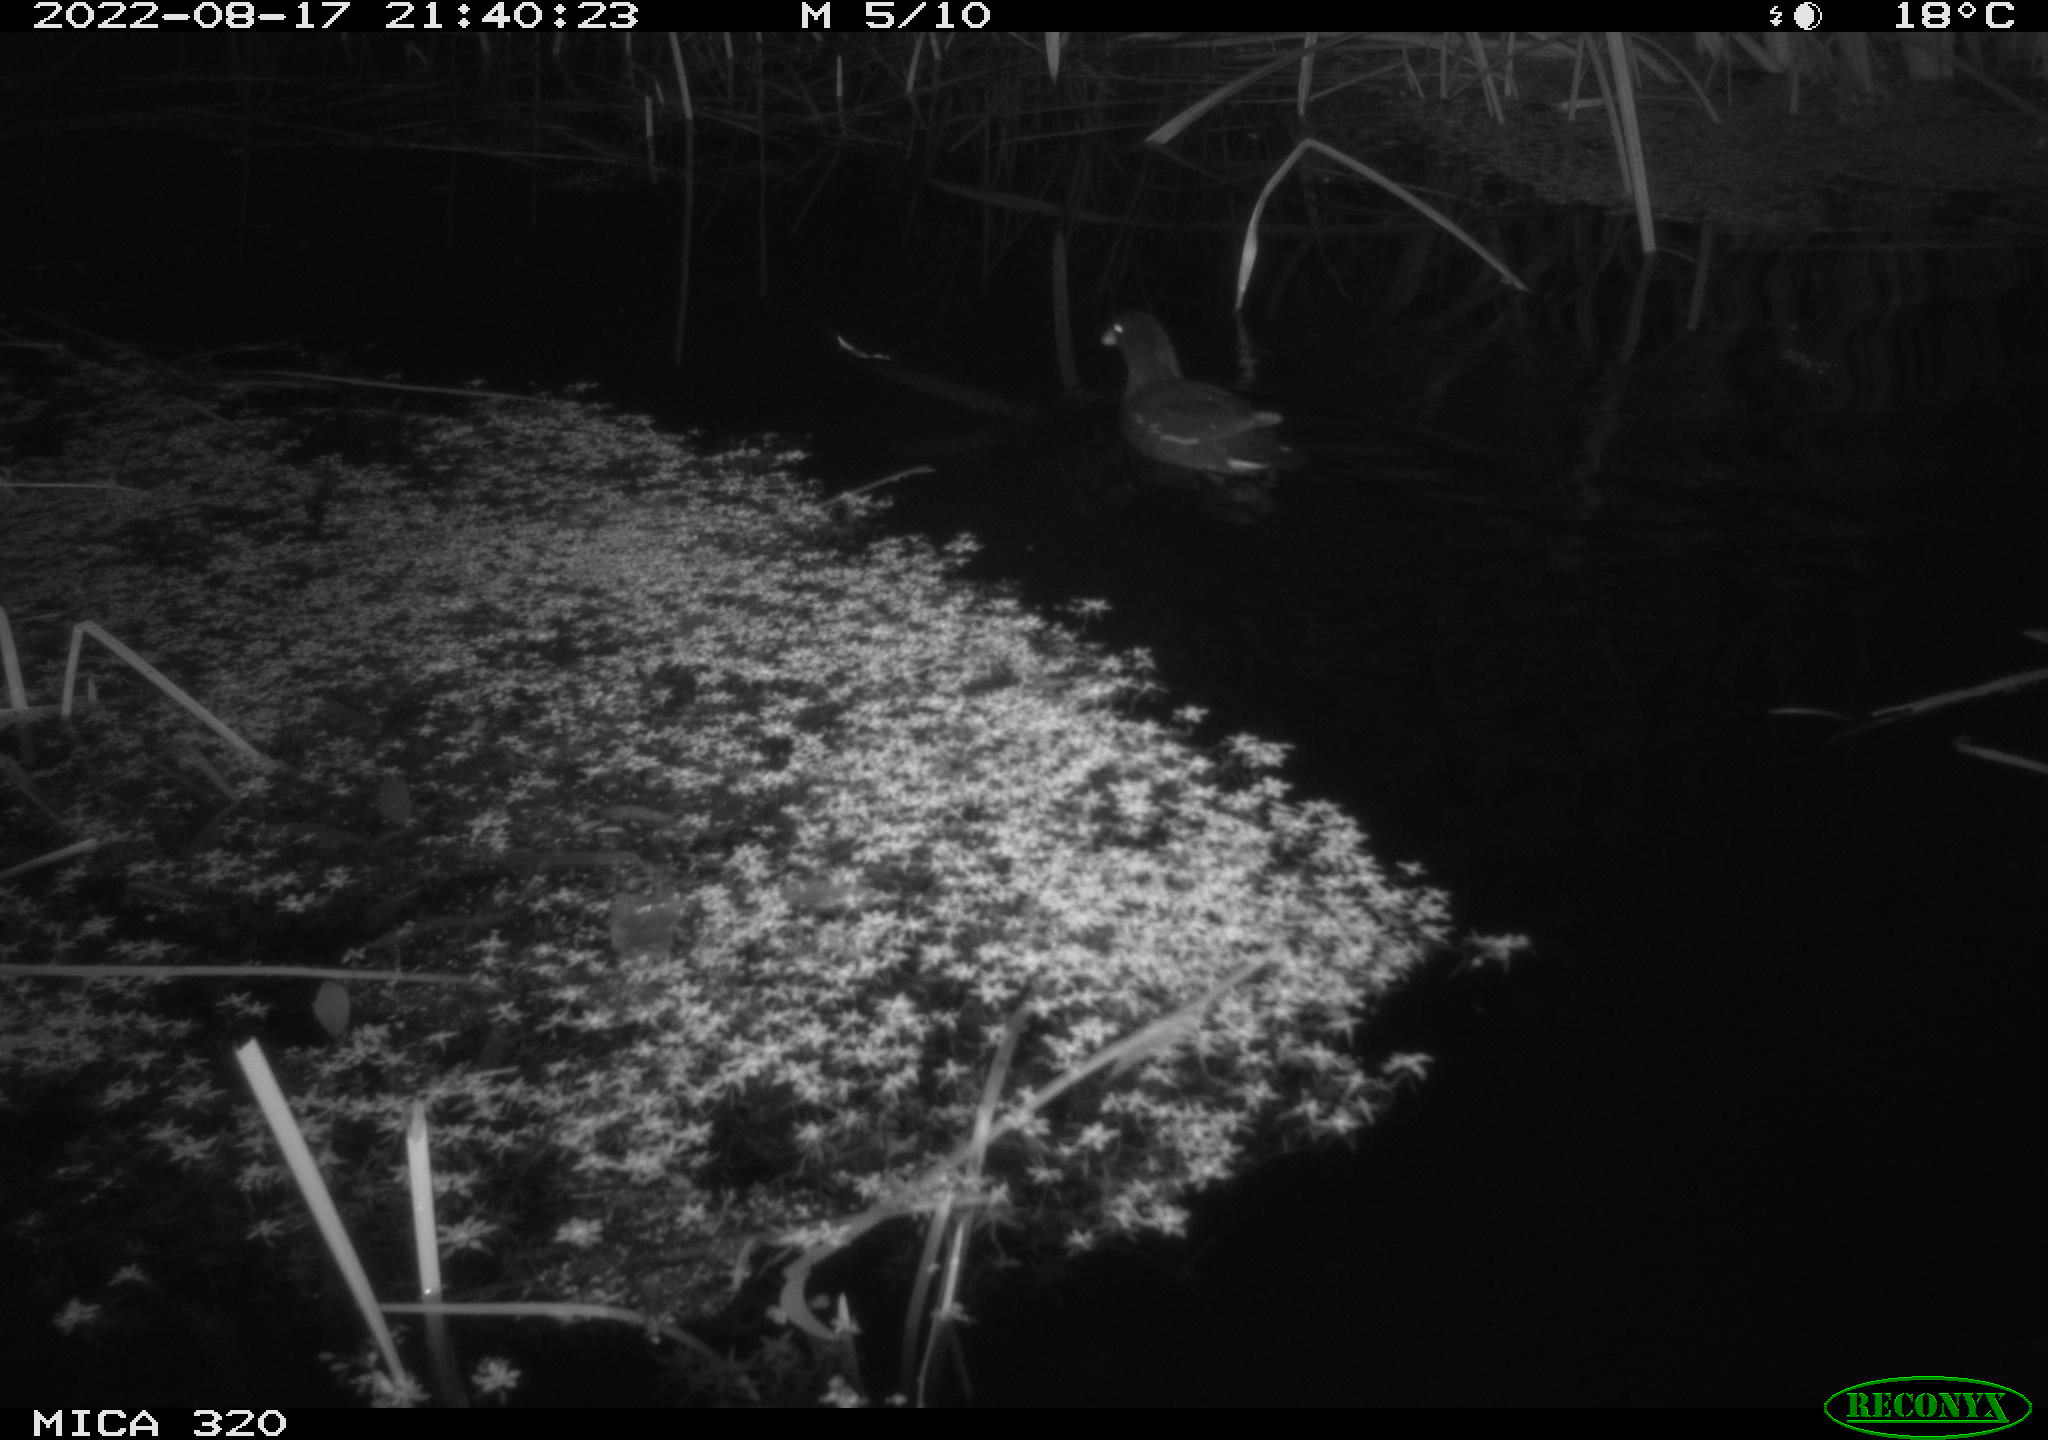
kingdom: Animalia
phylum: Chordata
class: Aves
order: Gruiformes
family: Rallidae
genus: Gallinula
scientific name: Gallinula chloropus
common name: Common moorhen
